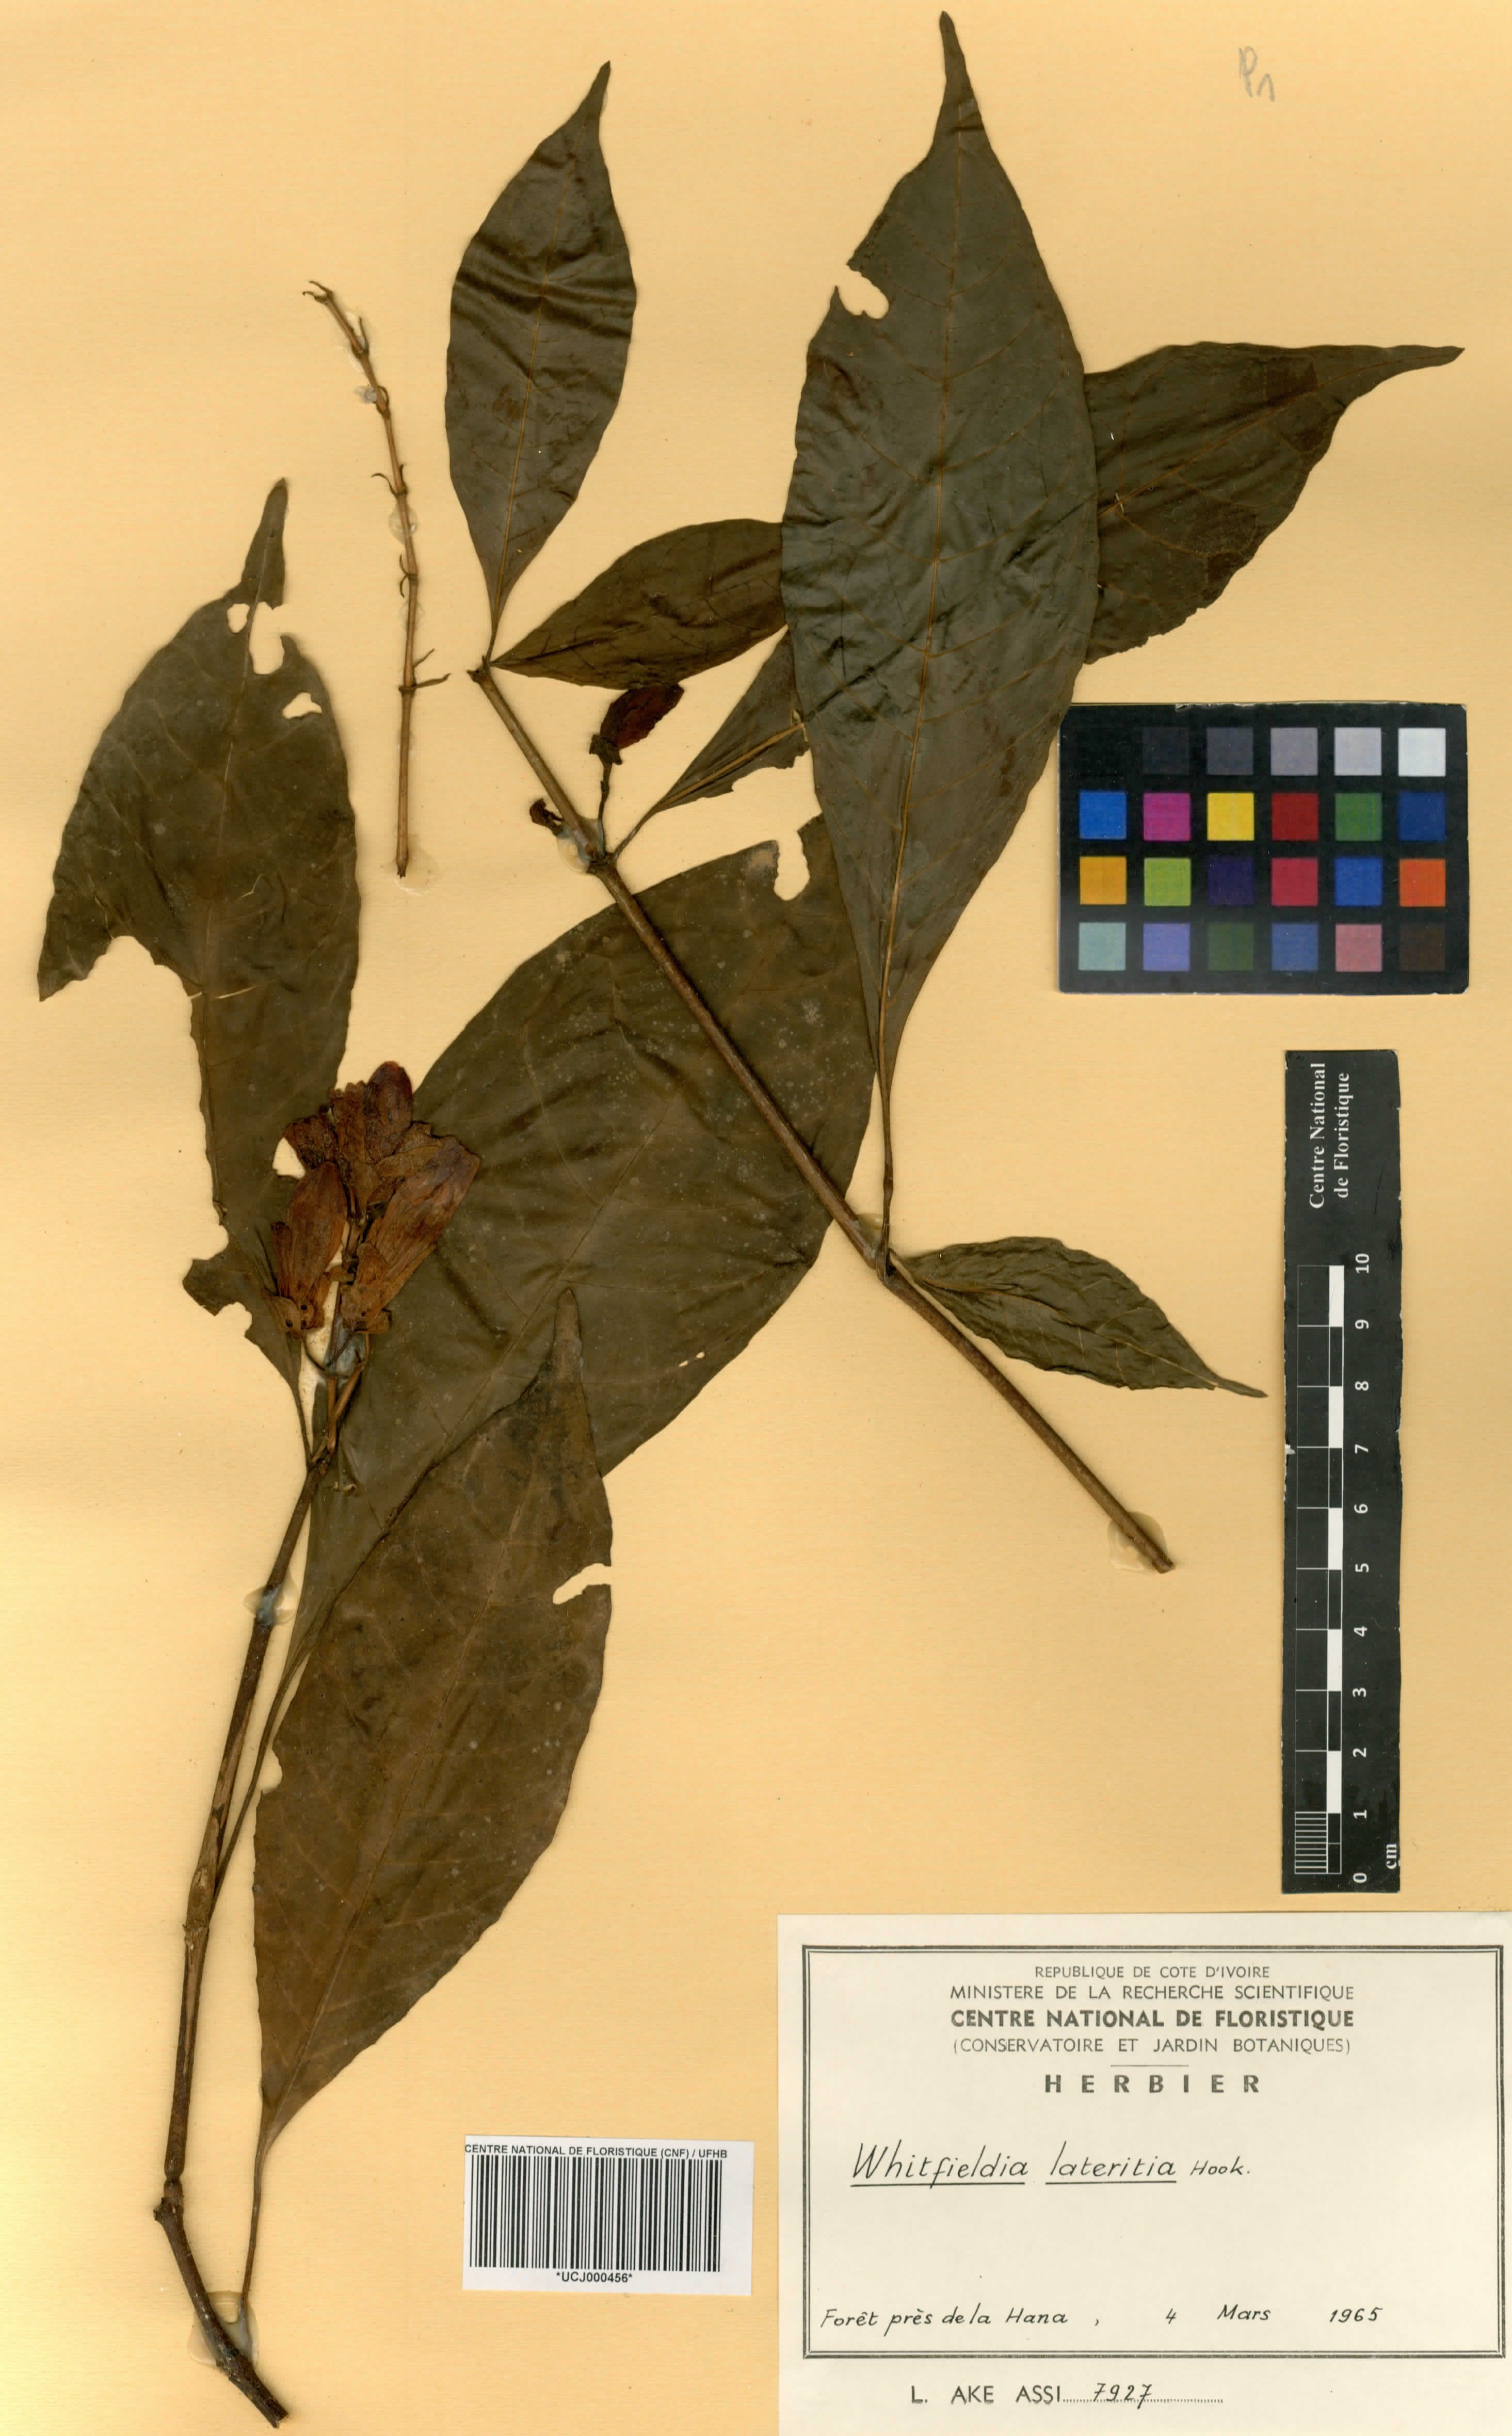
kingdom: Plantae
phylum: Tracheophyta
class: Magnoliopsida
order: Lamiales
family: Acanthaceae
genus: Whitfieldia
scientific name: Whitfieldia lateritia
